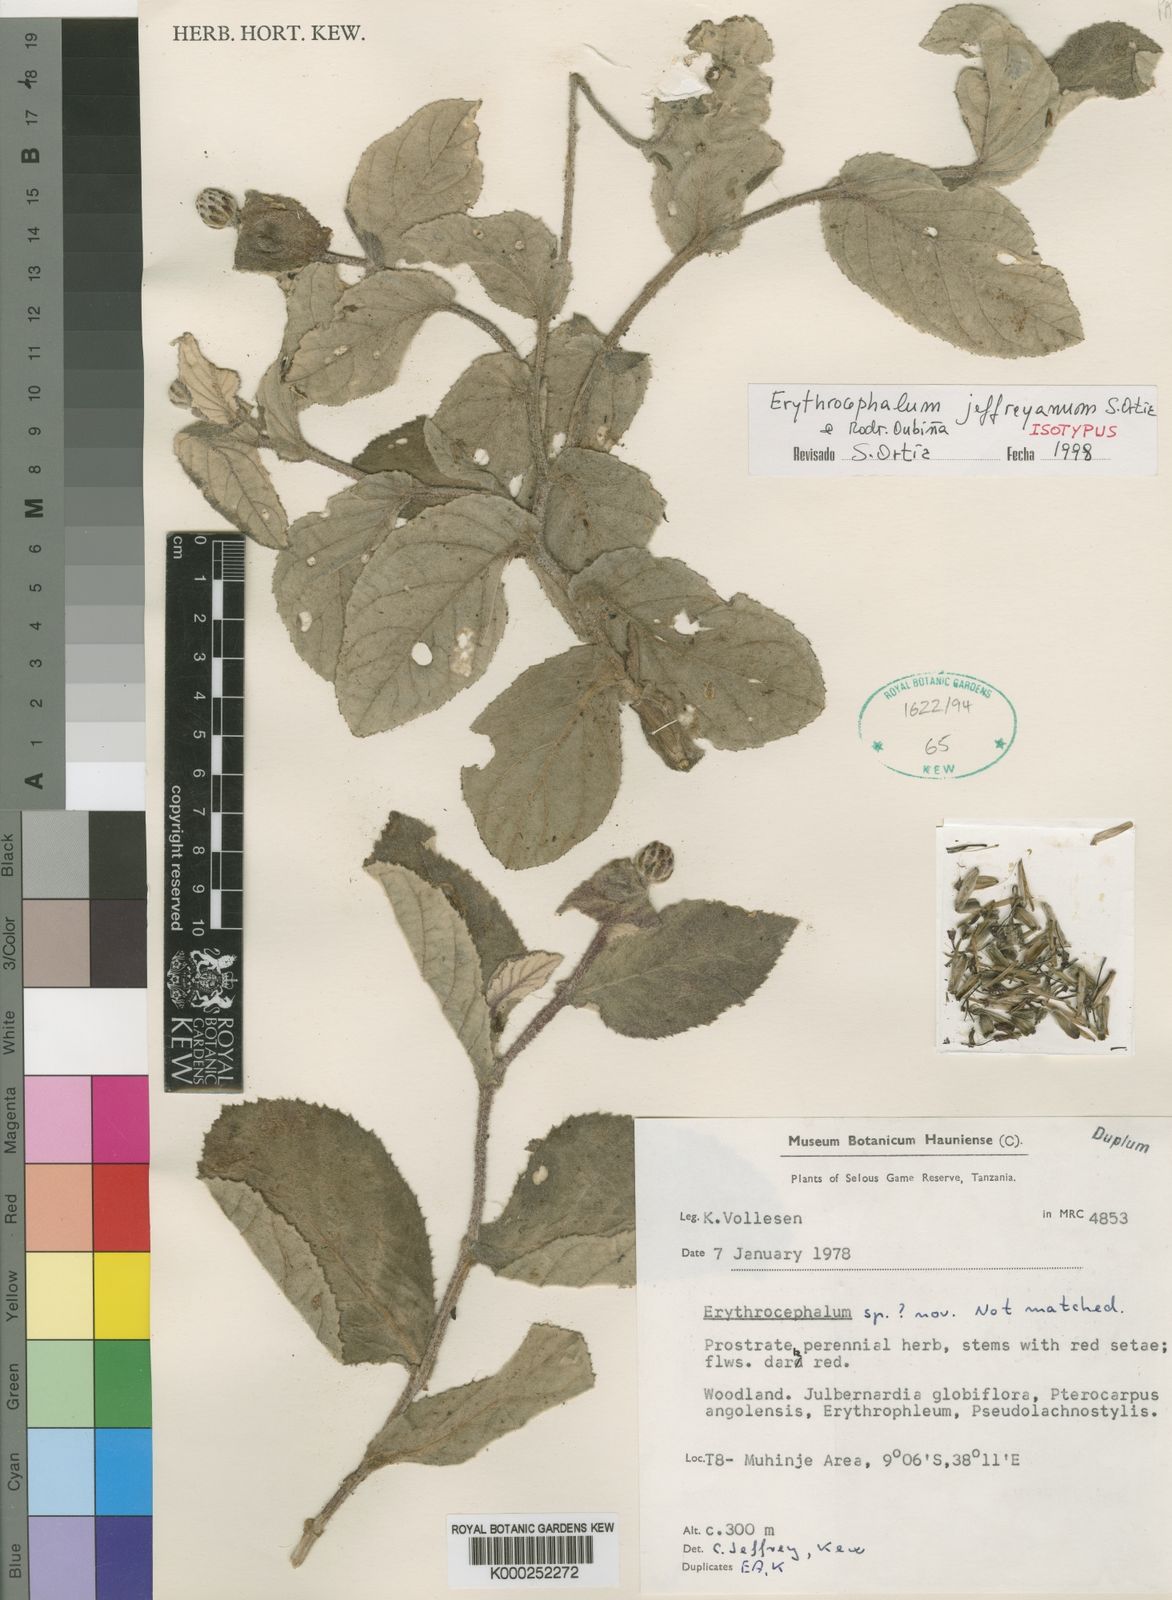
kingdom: Plantae
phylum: Tracheophyta
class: Magnoliopsida
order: Asterales
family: Asteraceae
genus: Erythrocephalum
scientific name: Erythrocephalum
